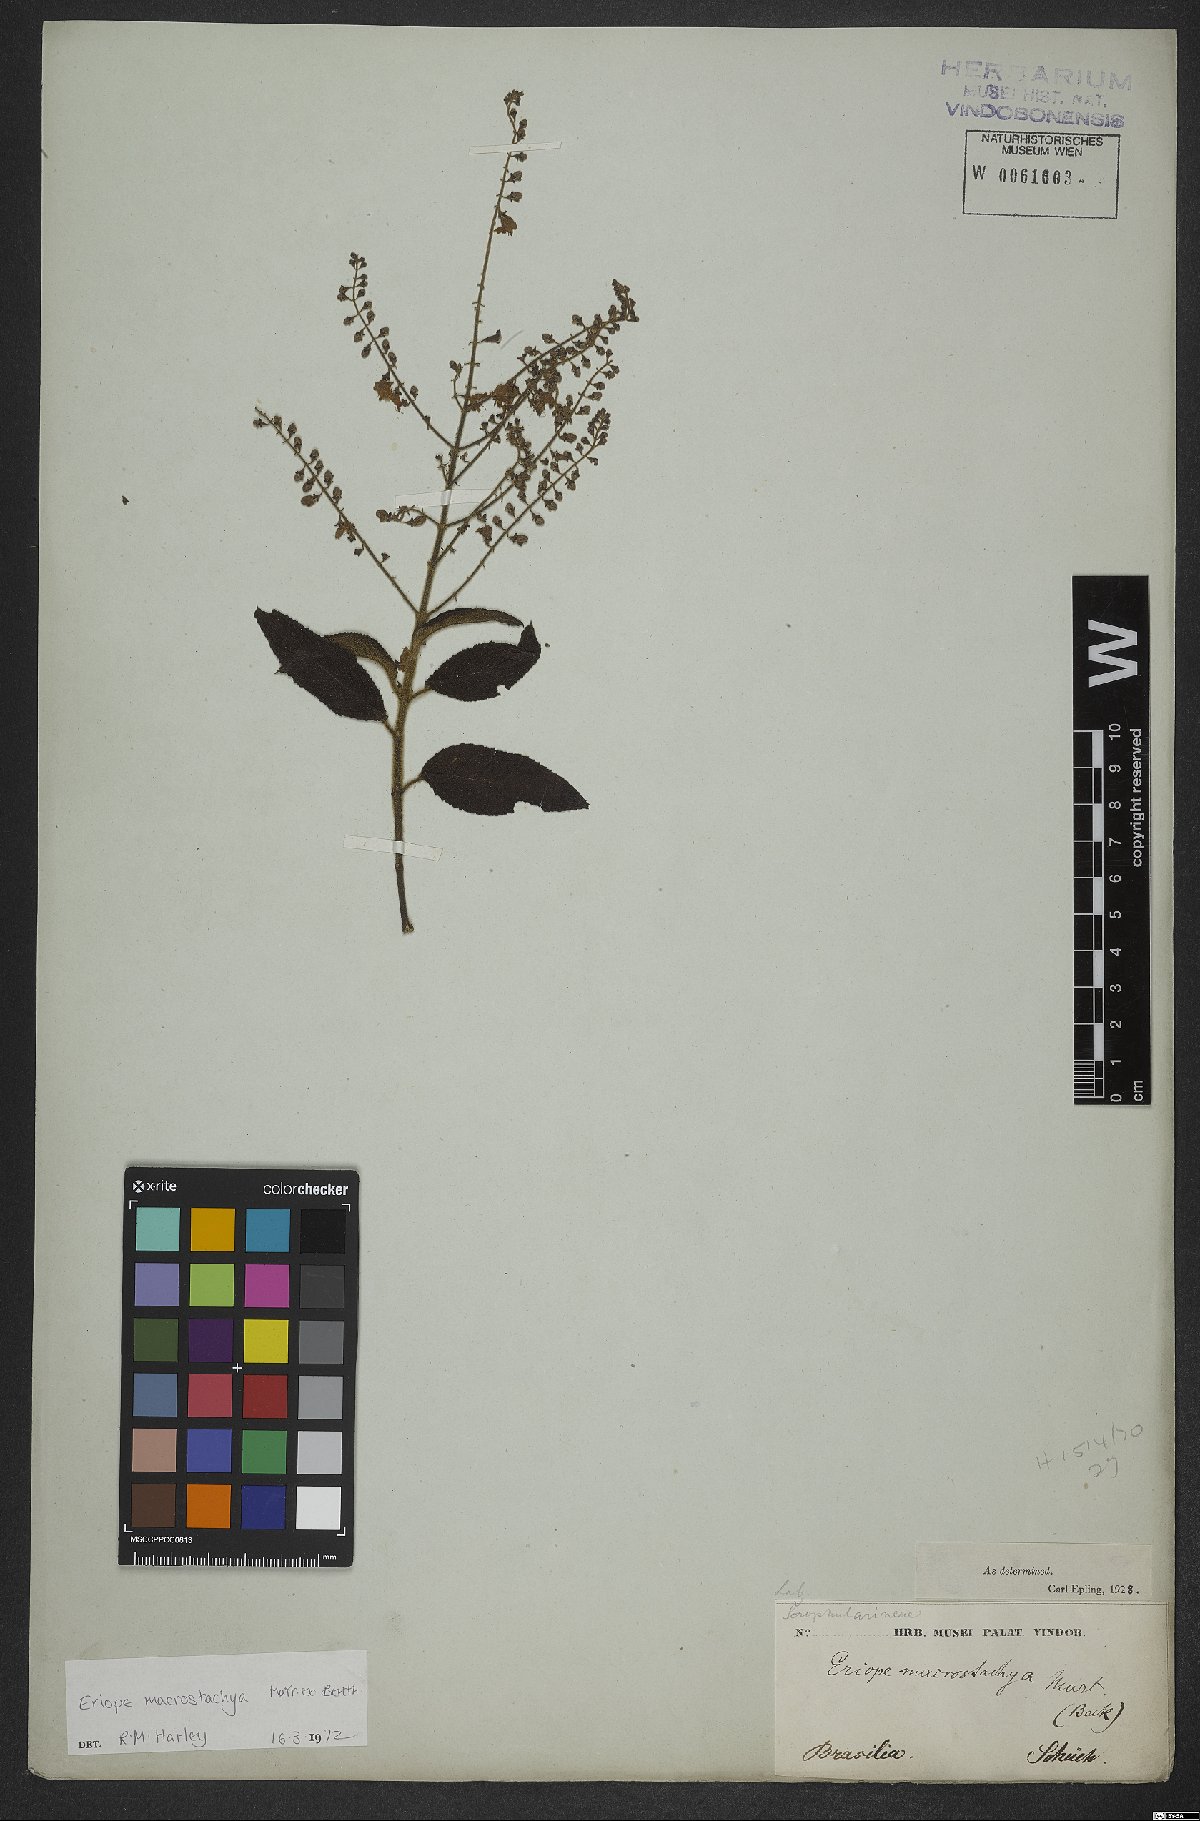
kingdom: Plantae
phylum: Tracheophyta
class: Magnoliopsida
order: Lamiales
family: Lamiaceae
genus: Eriope
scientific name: Eriope macrostachya
